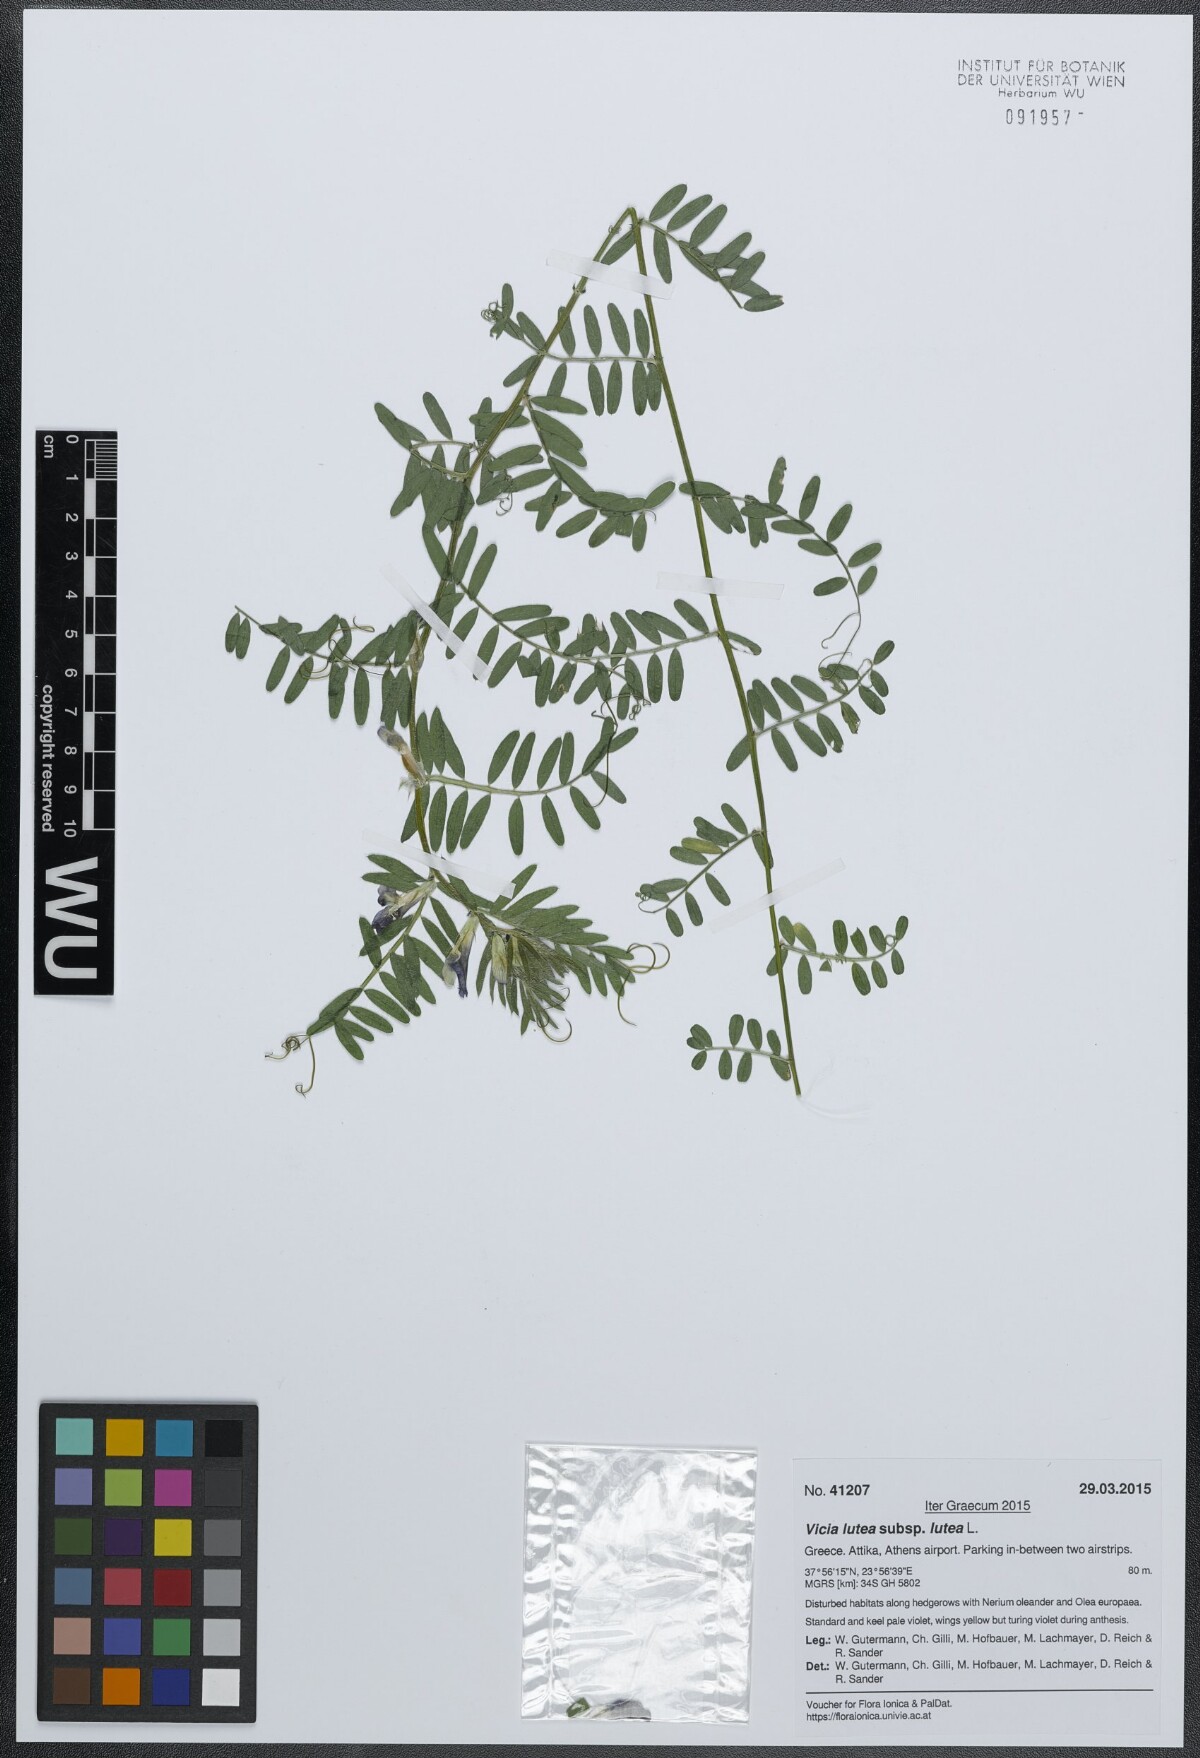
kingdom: Plantae
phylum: Tracheophyta
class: Magnoliopsida
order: Fabales
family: Fabaceae
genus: Vicia
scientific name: Vicia lutea
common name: Smooth yellow vetch
